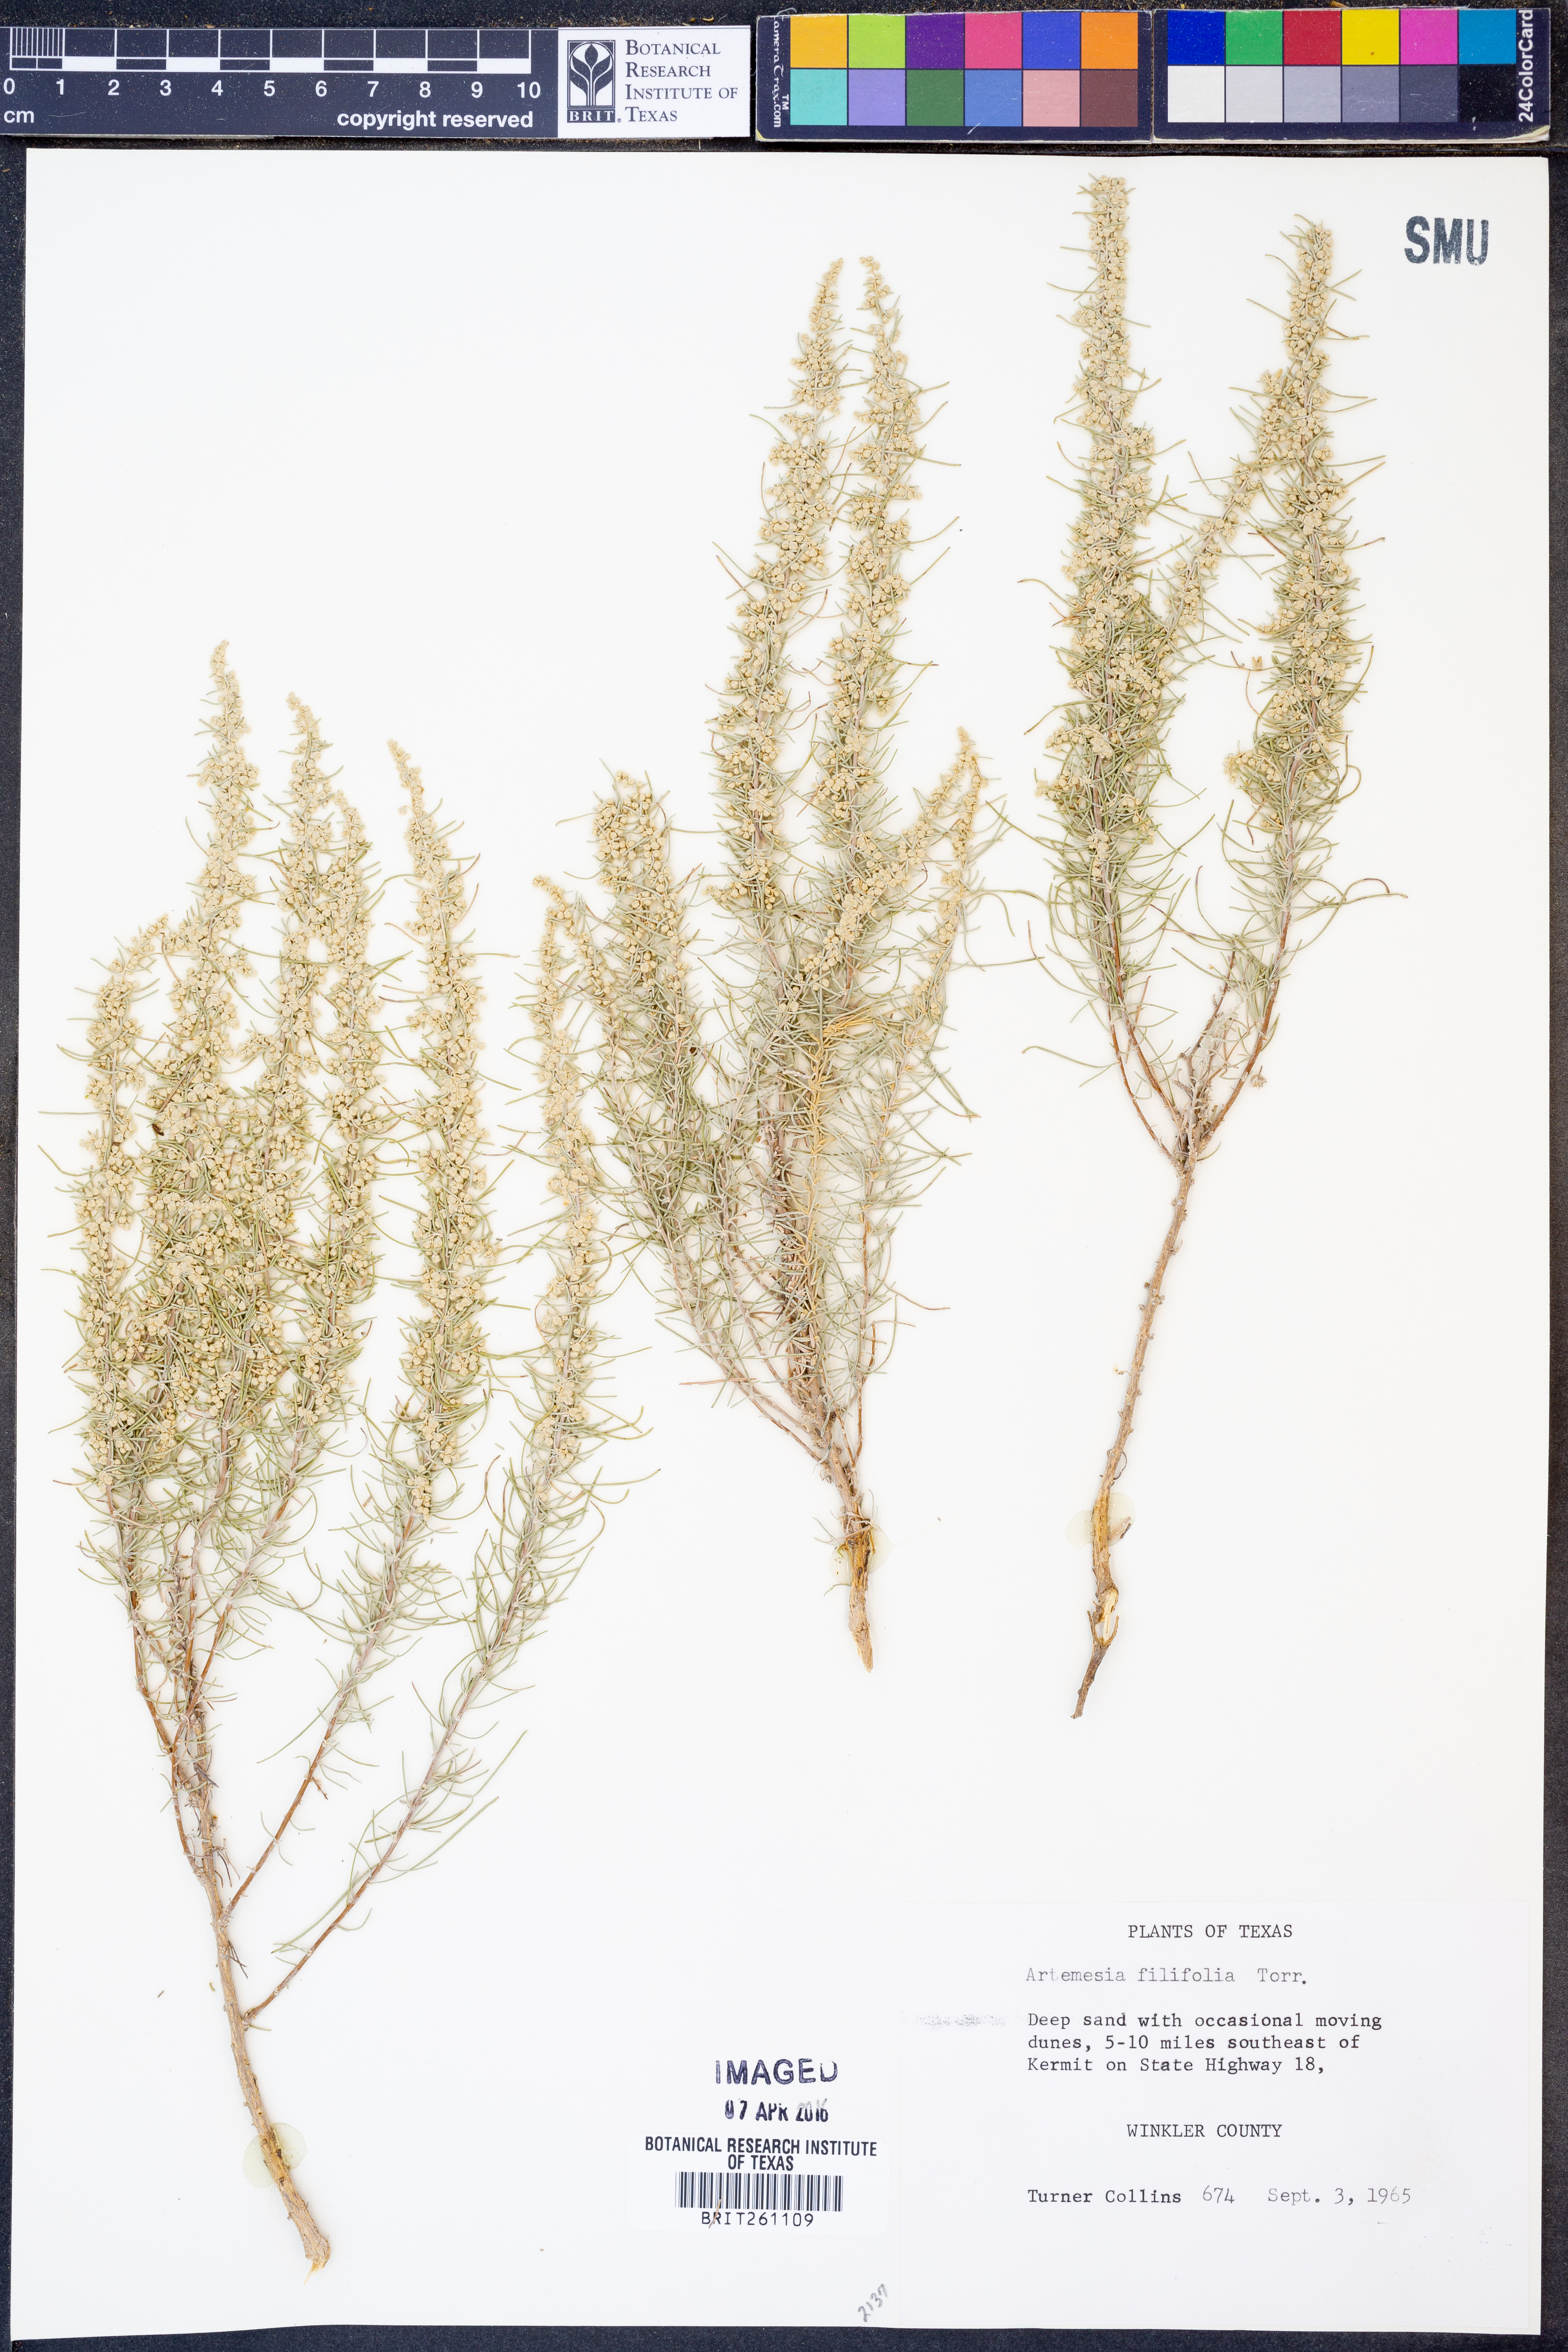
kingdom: Plantae
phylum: Tracheophyta
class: Magnoliopsida
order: Asterales
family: Asteraceae
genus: Artemisia
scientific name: Artemisia filifolia
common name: Sand-sage
